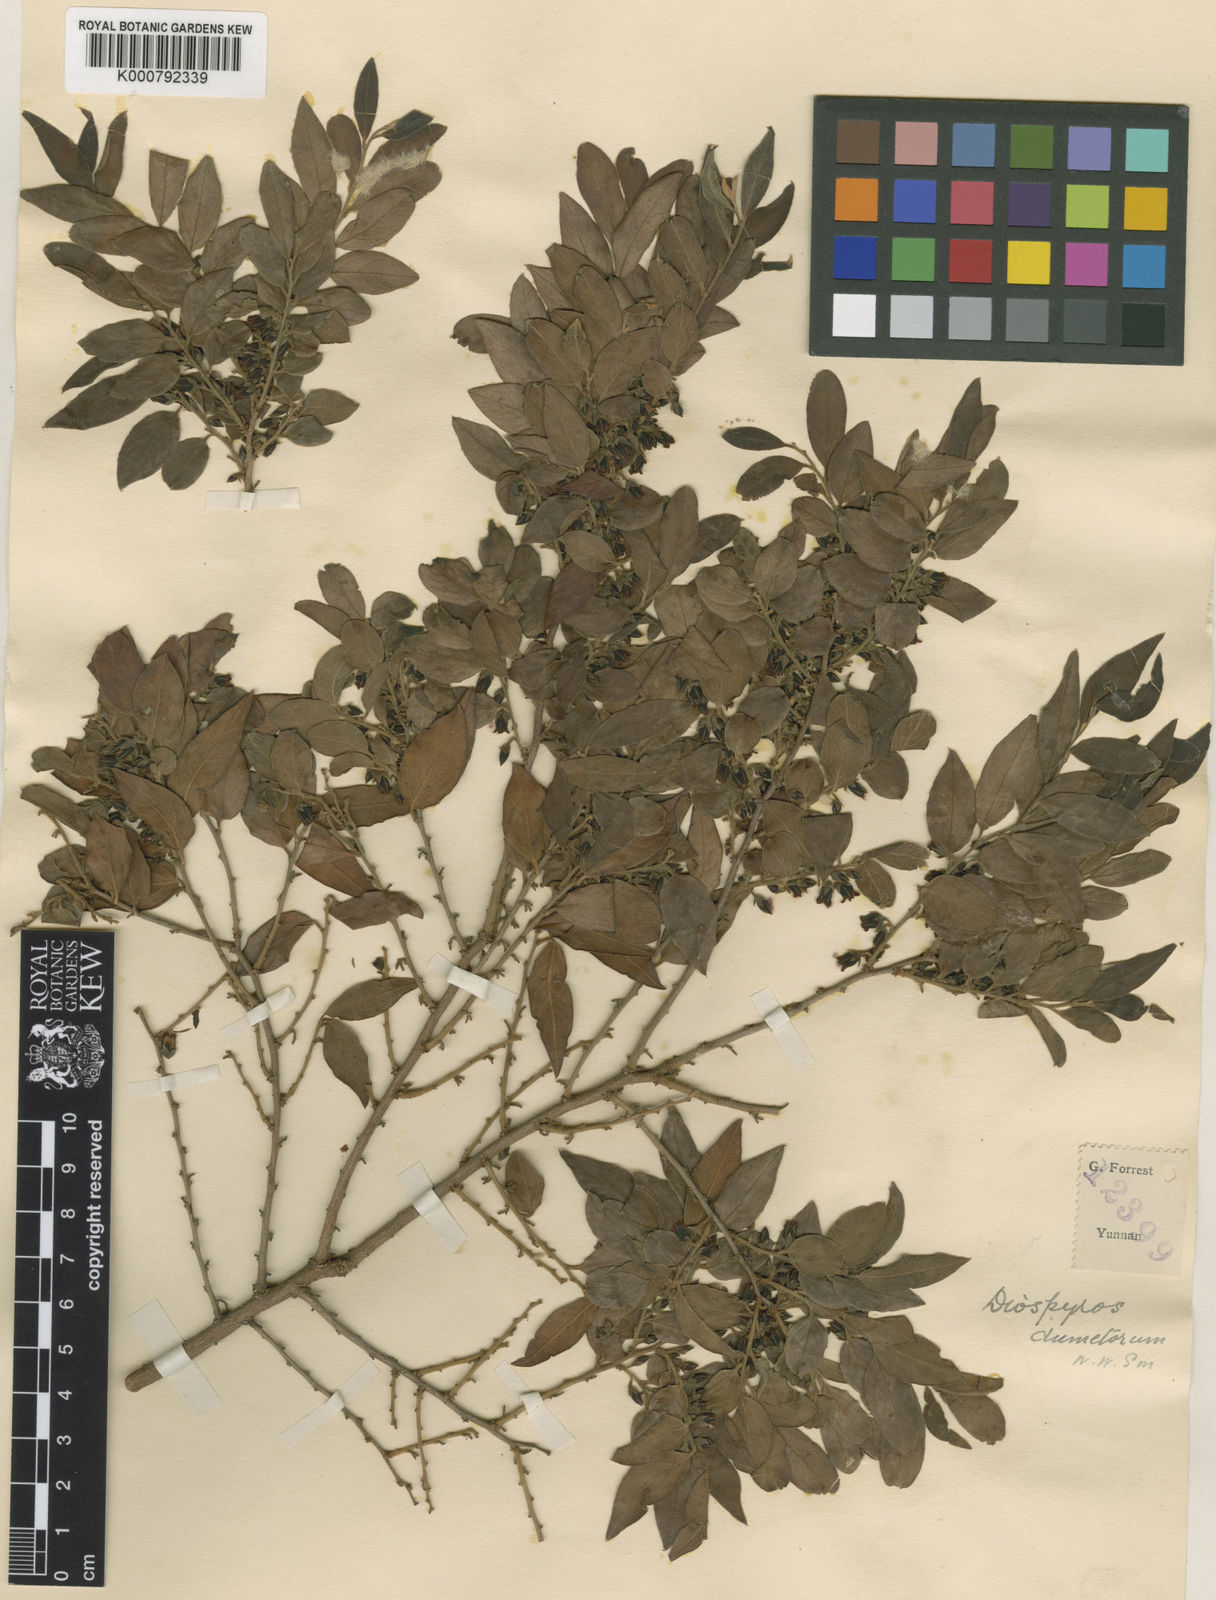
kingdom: Plantae
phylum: Tracheophyta
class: Magnoliopsida
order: Ericales
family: Ebenaceae
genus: Diospyros
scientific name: Diospyros dumetorum
